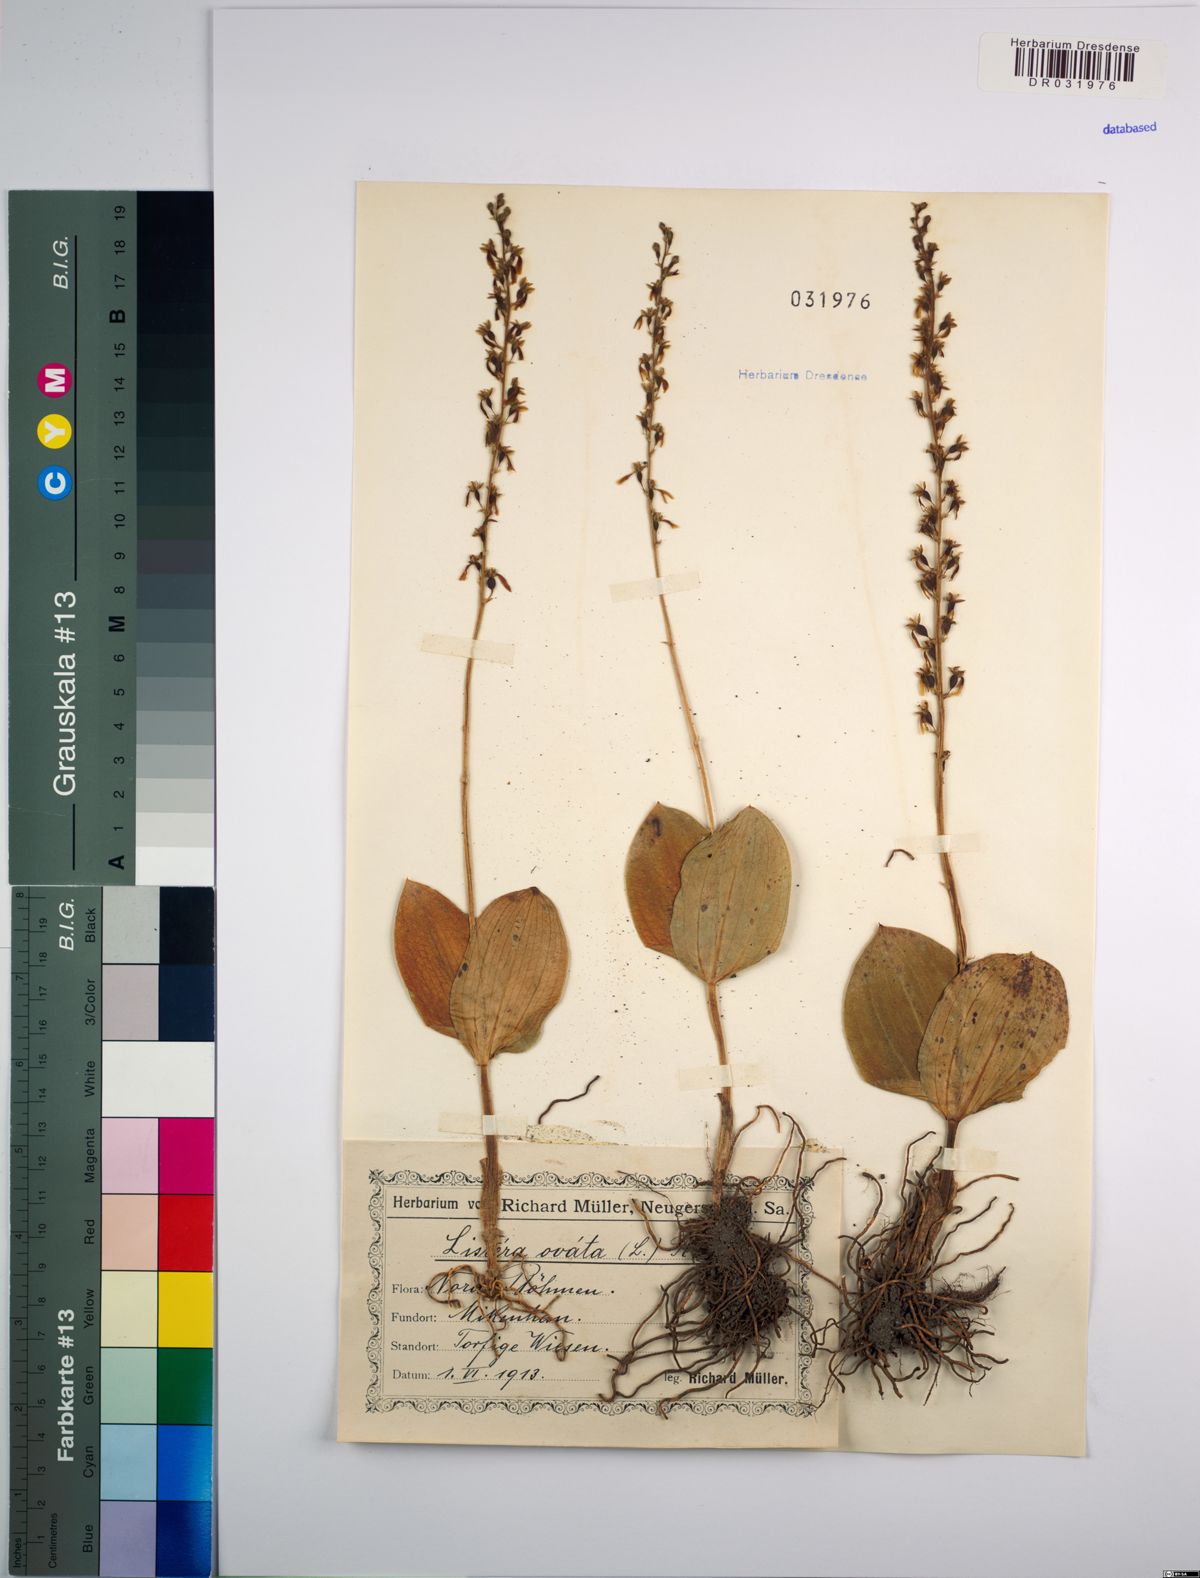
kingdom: Plantae
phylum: Tracheophyta
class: Liliopsida
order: Asparagales
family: Orchidaceae
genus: Neottia
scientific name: Neottia ovata
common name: Common twayblade
